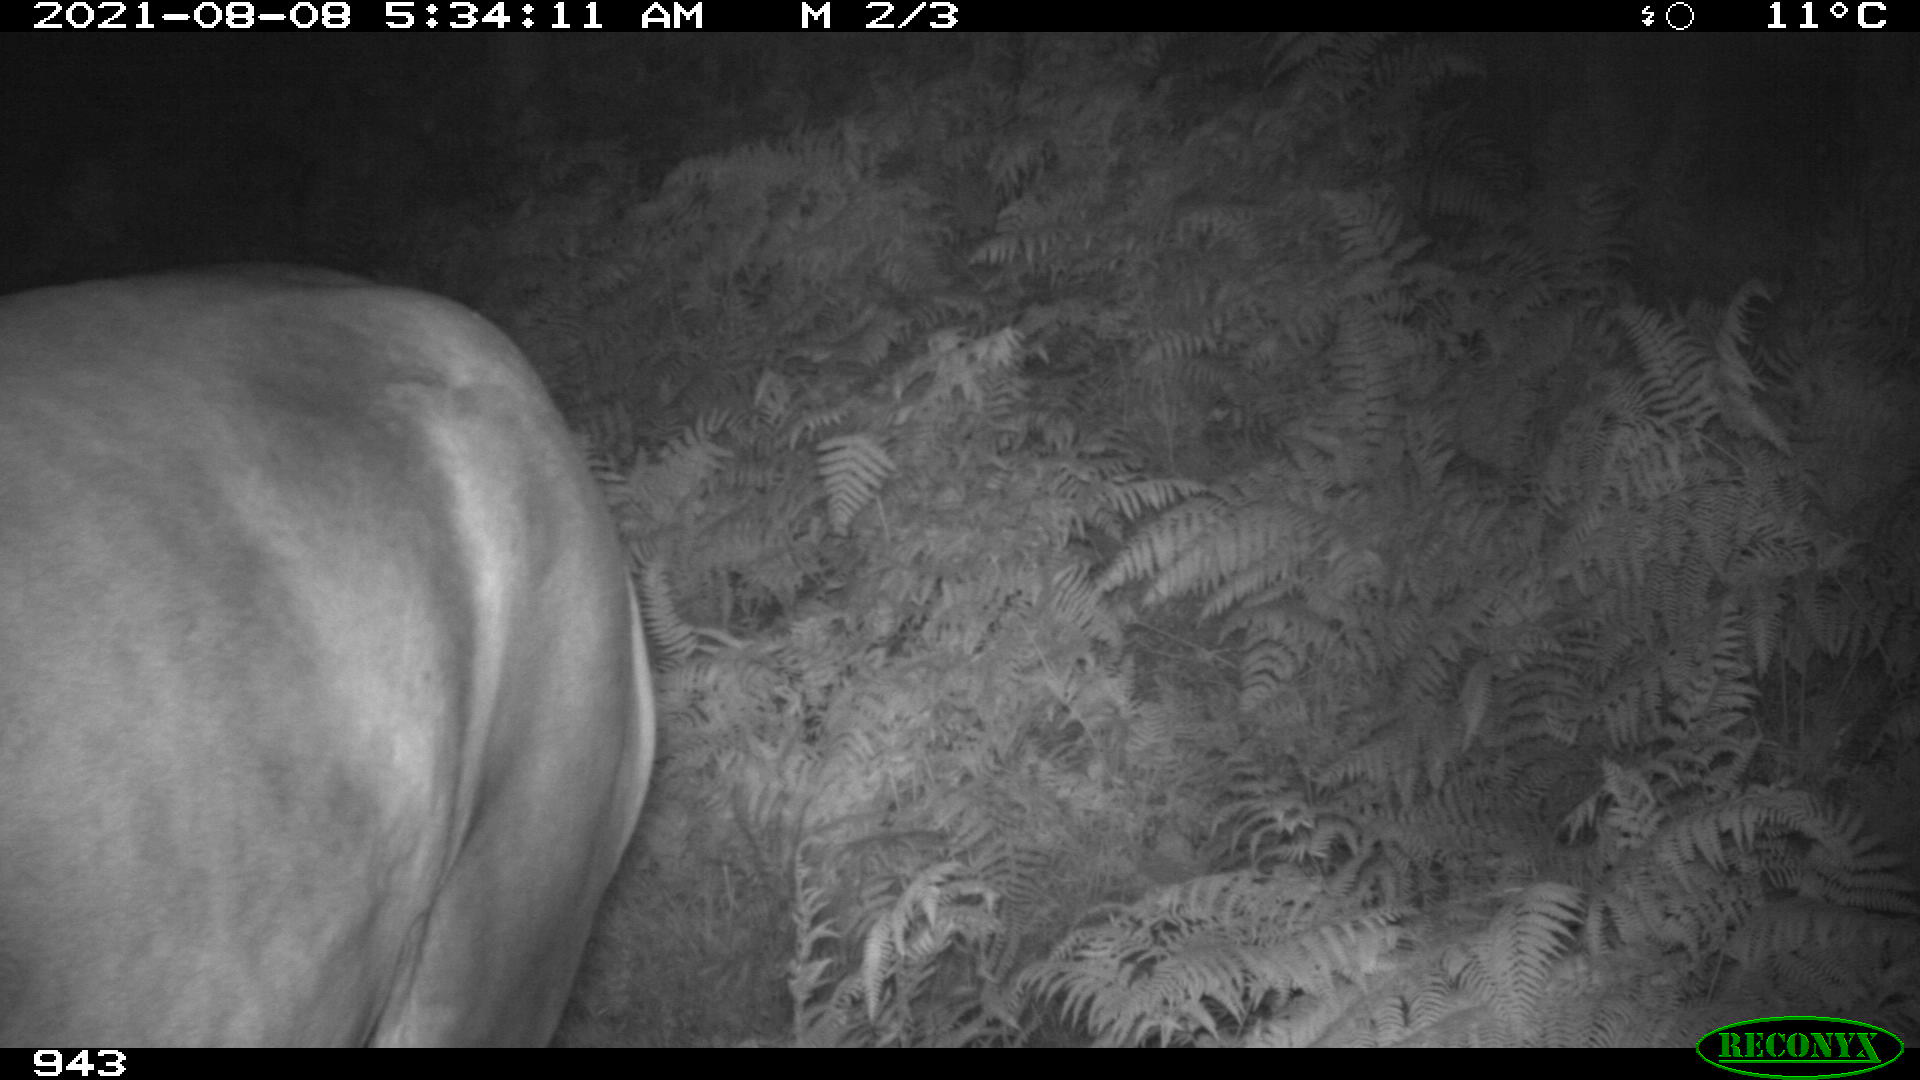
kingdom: Animalia
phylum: Chordata
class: Mammalia
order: Perissodactyla
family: Equidae
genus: Equus
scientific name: Equus caballus
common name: Horse
